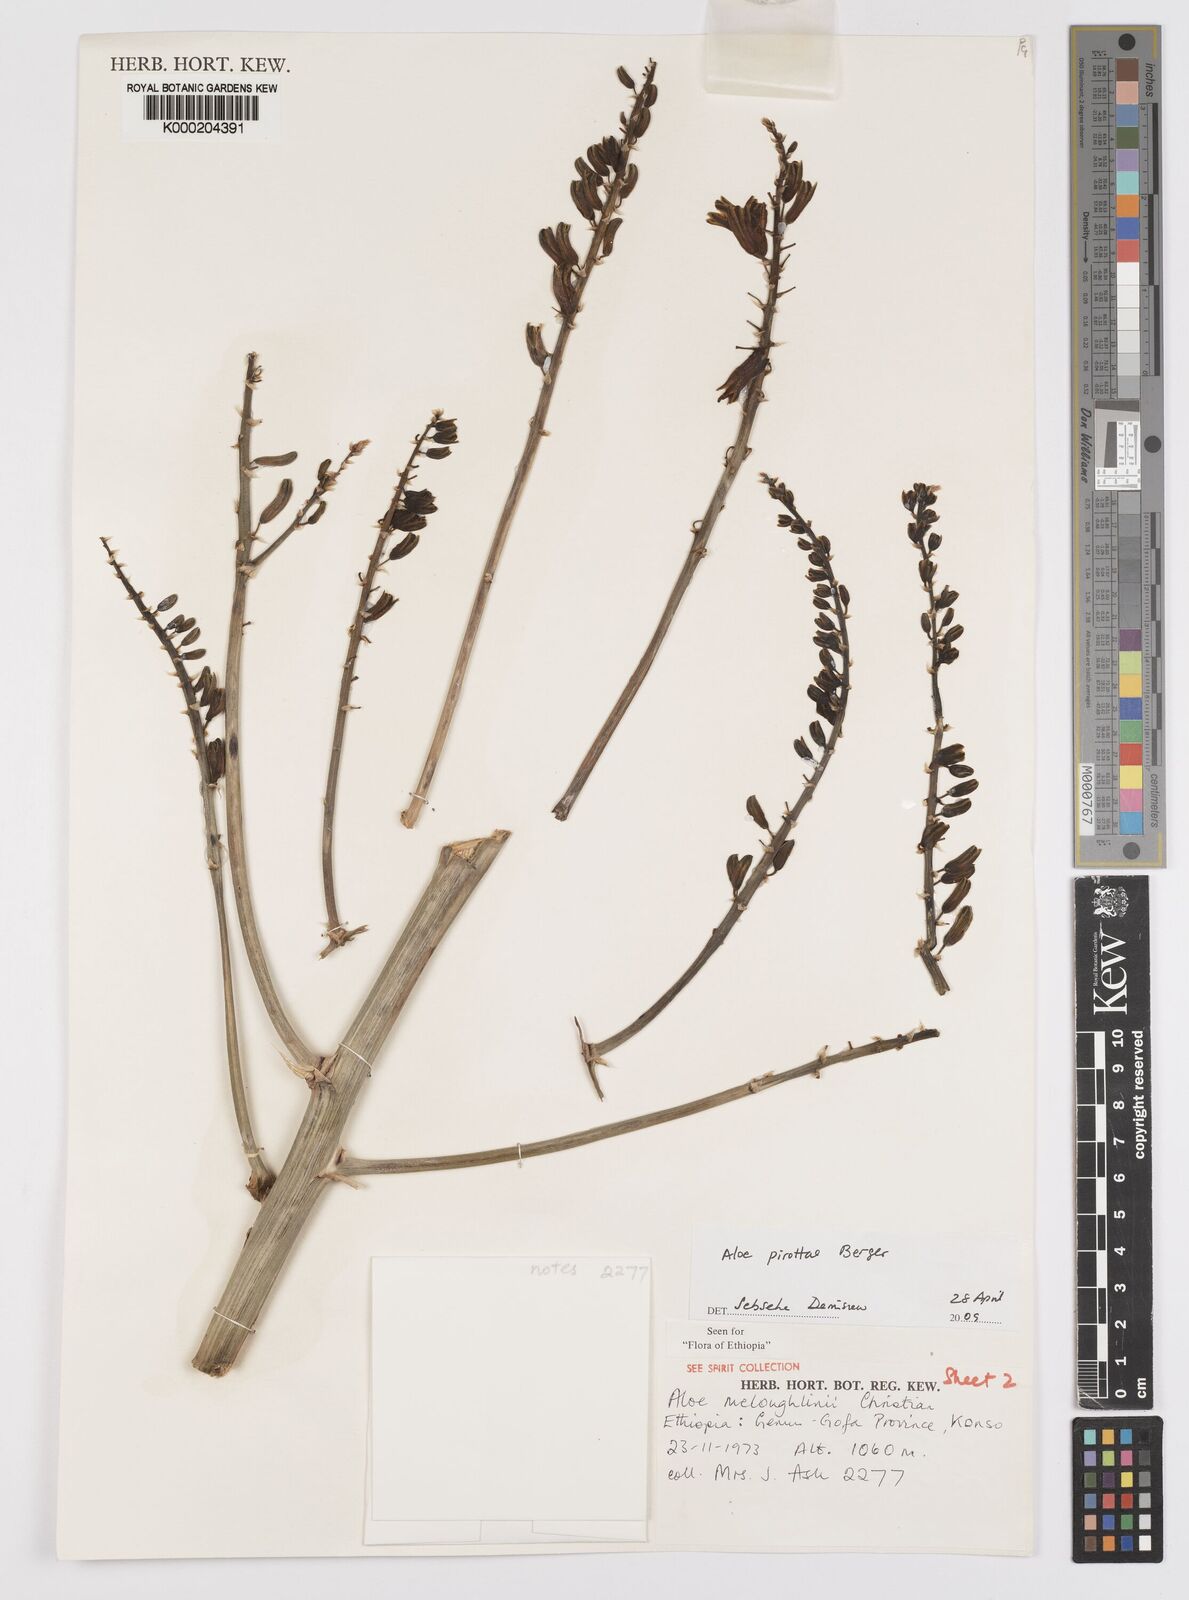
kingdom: Plantae
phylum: Tracheophyta
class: Liliopsida
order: Asparagales
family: Asphodelaceae
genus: Aloe
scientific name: Aloe pirottae
